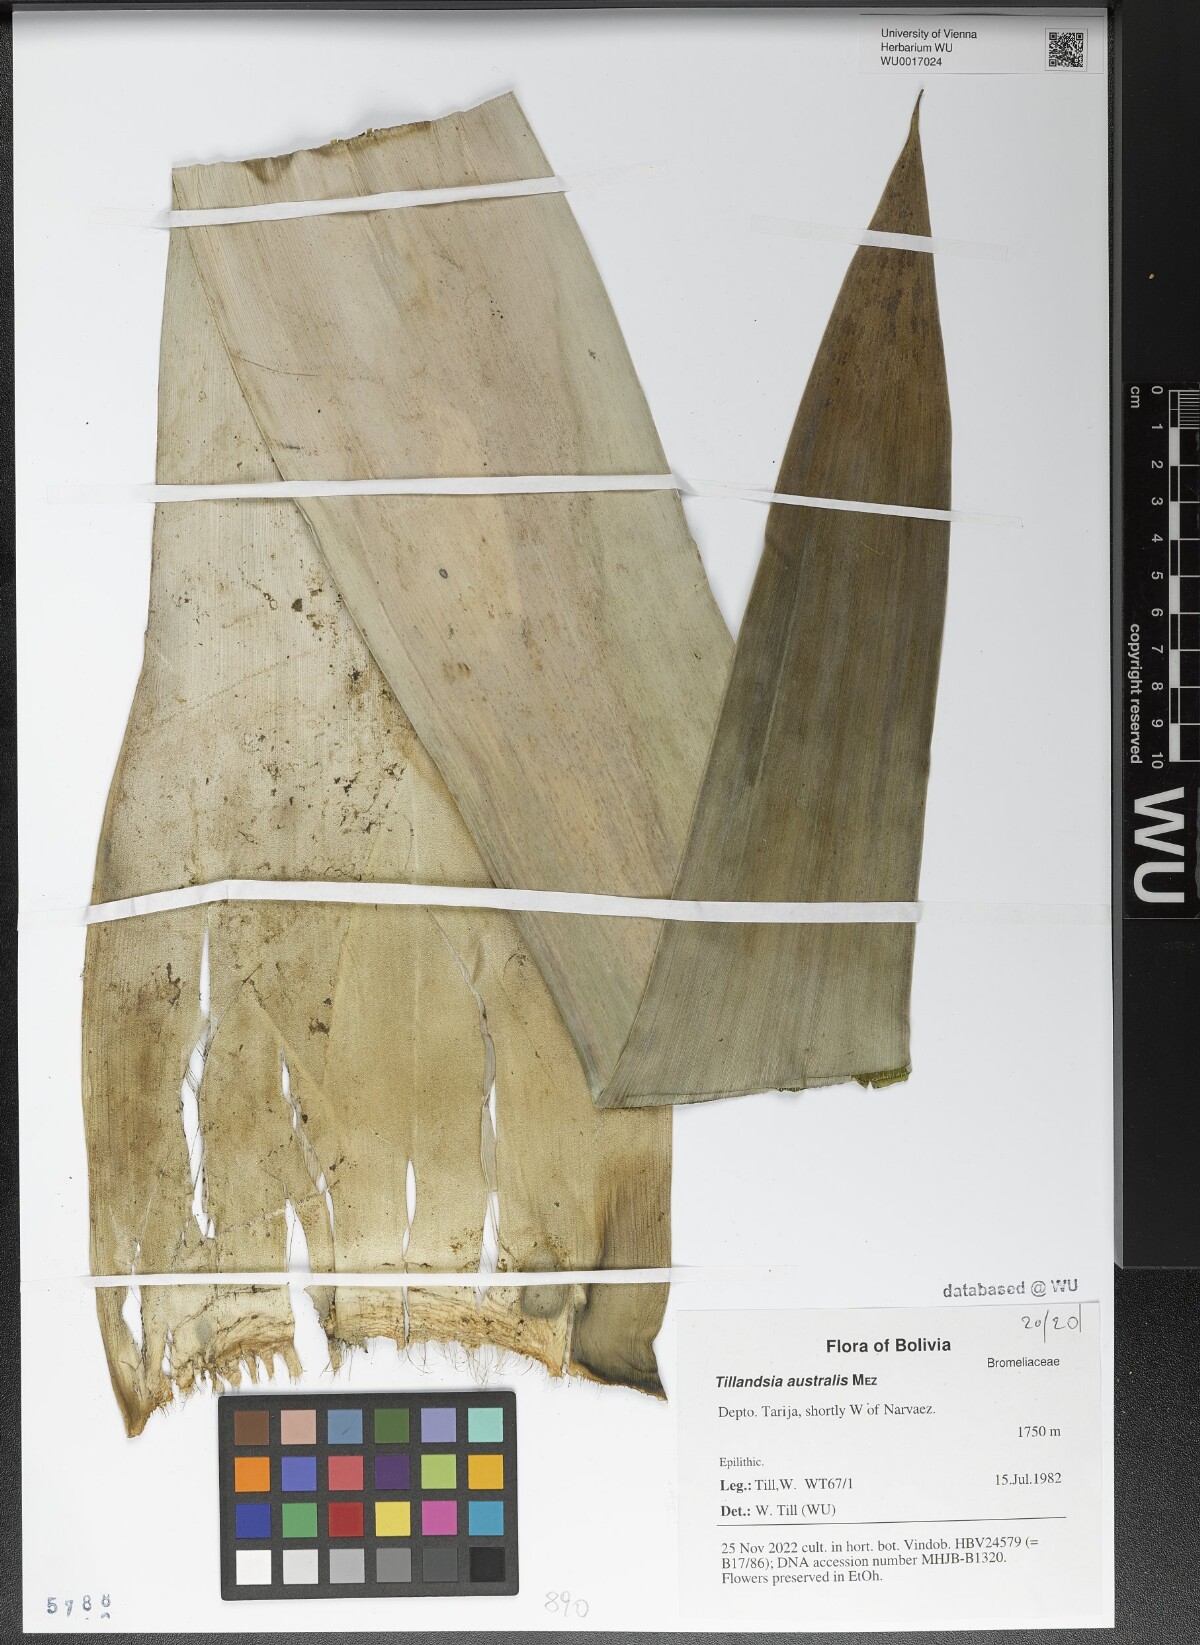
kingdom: Plantae
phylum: Tracheophyta
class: Liliopsida
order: Poales
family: Bromeliaceae
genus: Tillandsia
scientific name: Tillandsia australis
